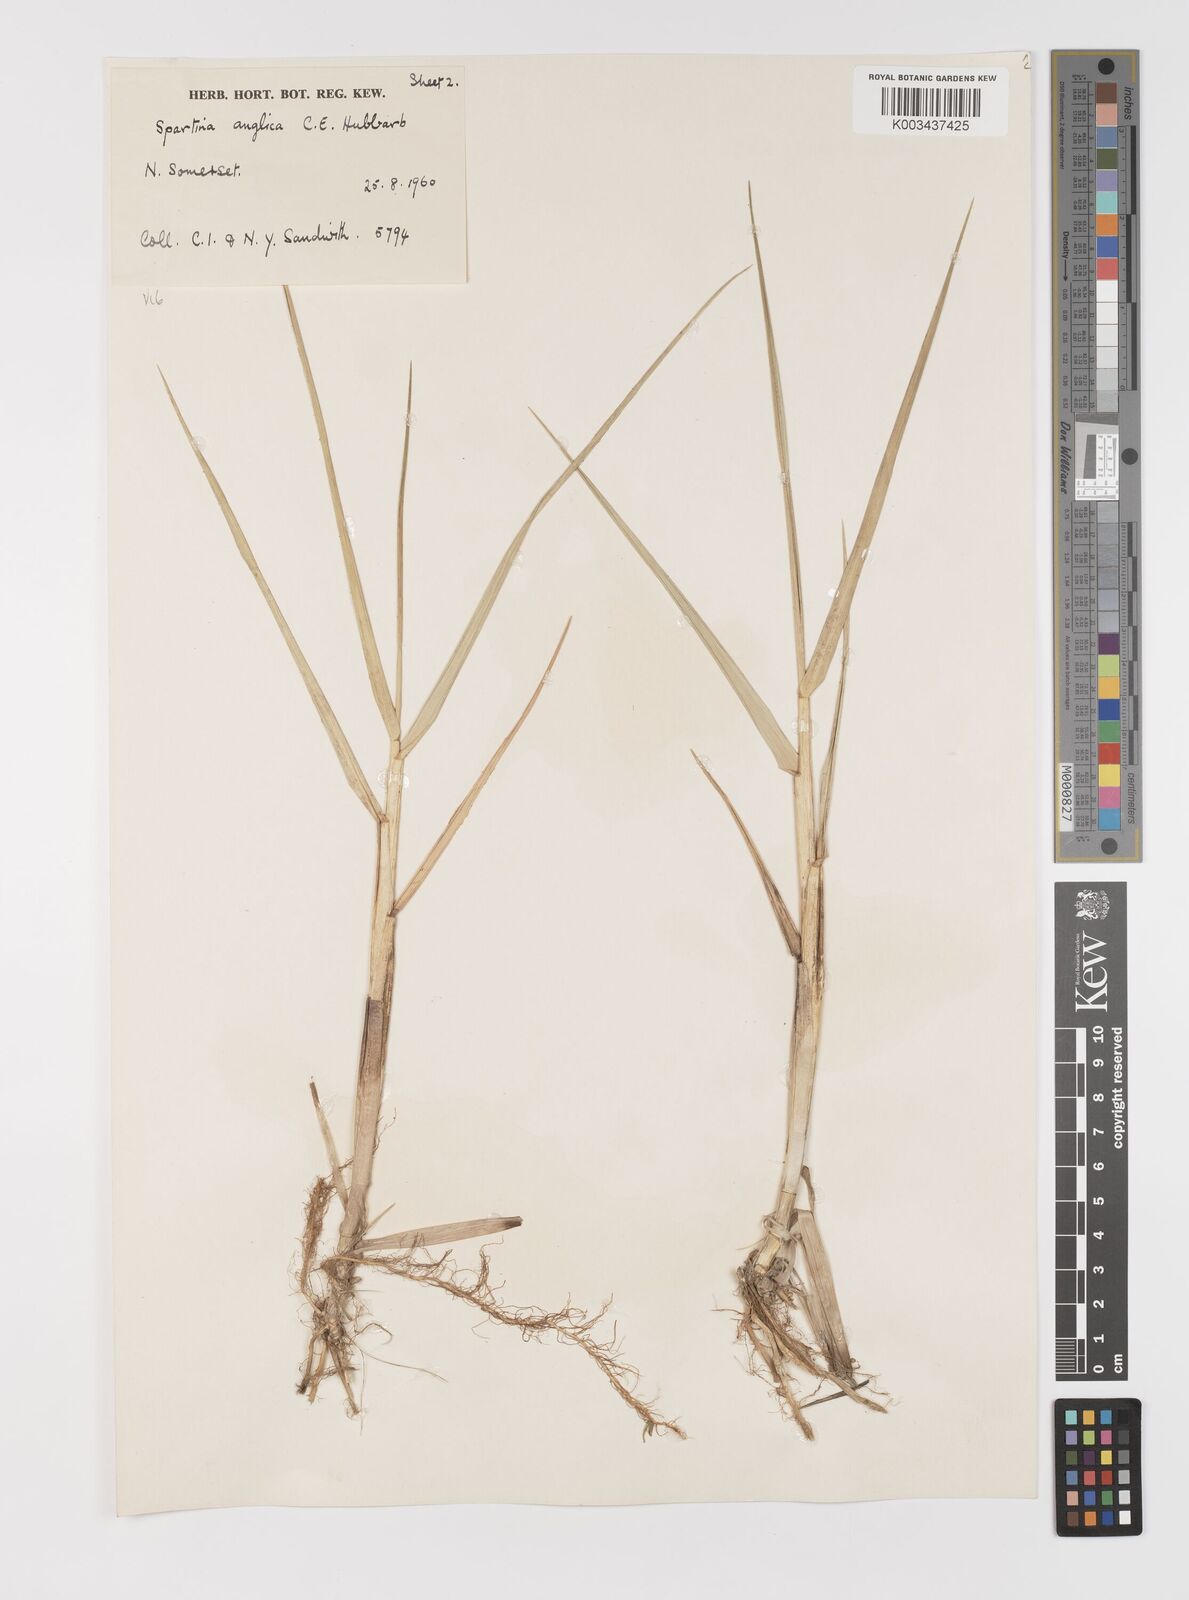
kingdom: Plantae
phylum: Tracheophyta
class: Liliopsida
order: Poales
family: Poaceae
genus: Sporobolus
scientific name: Sporobolus anglicus
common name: English cordgrass
